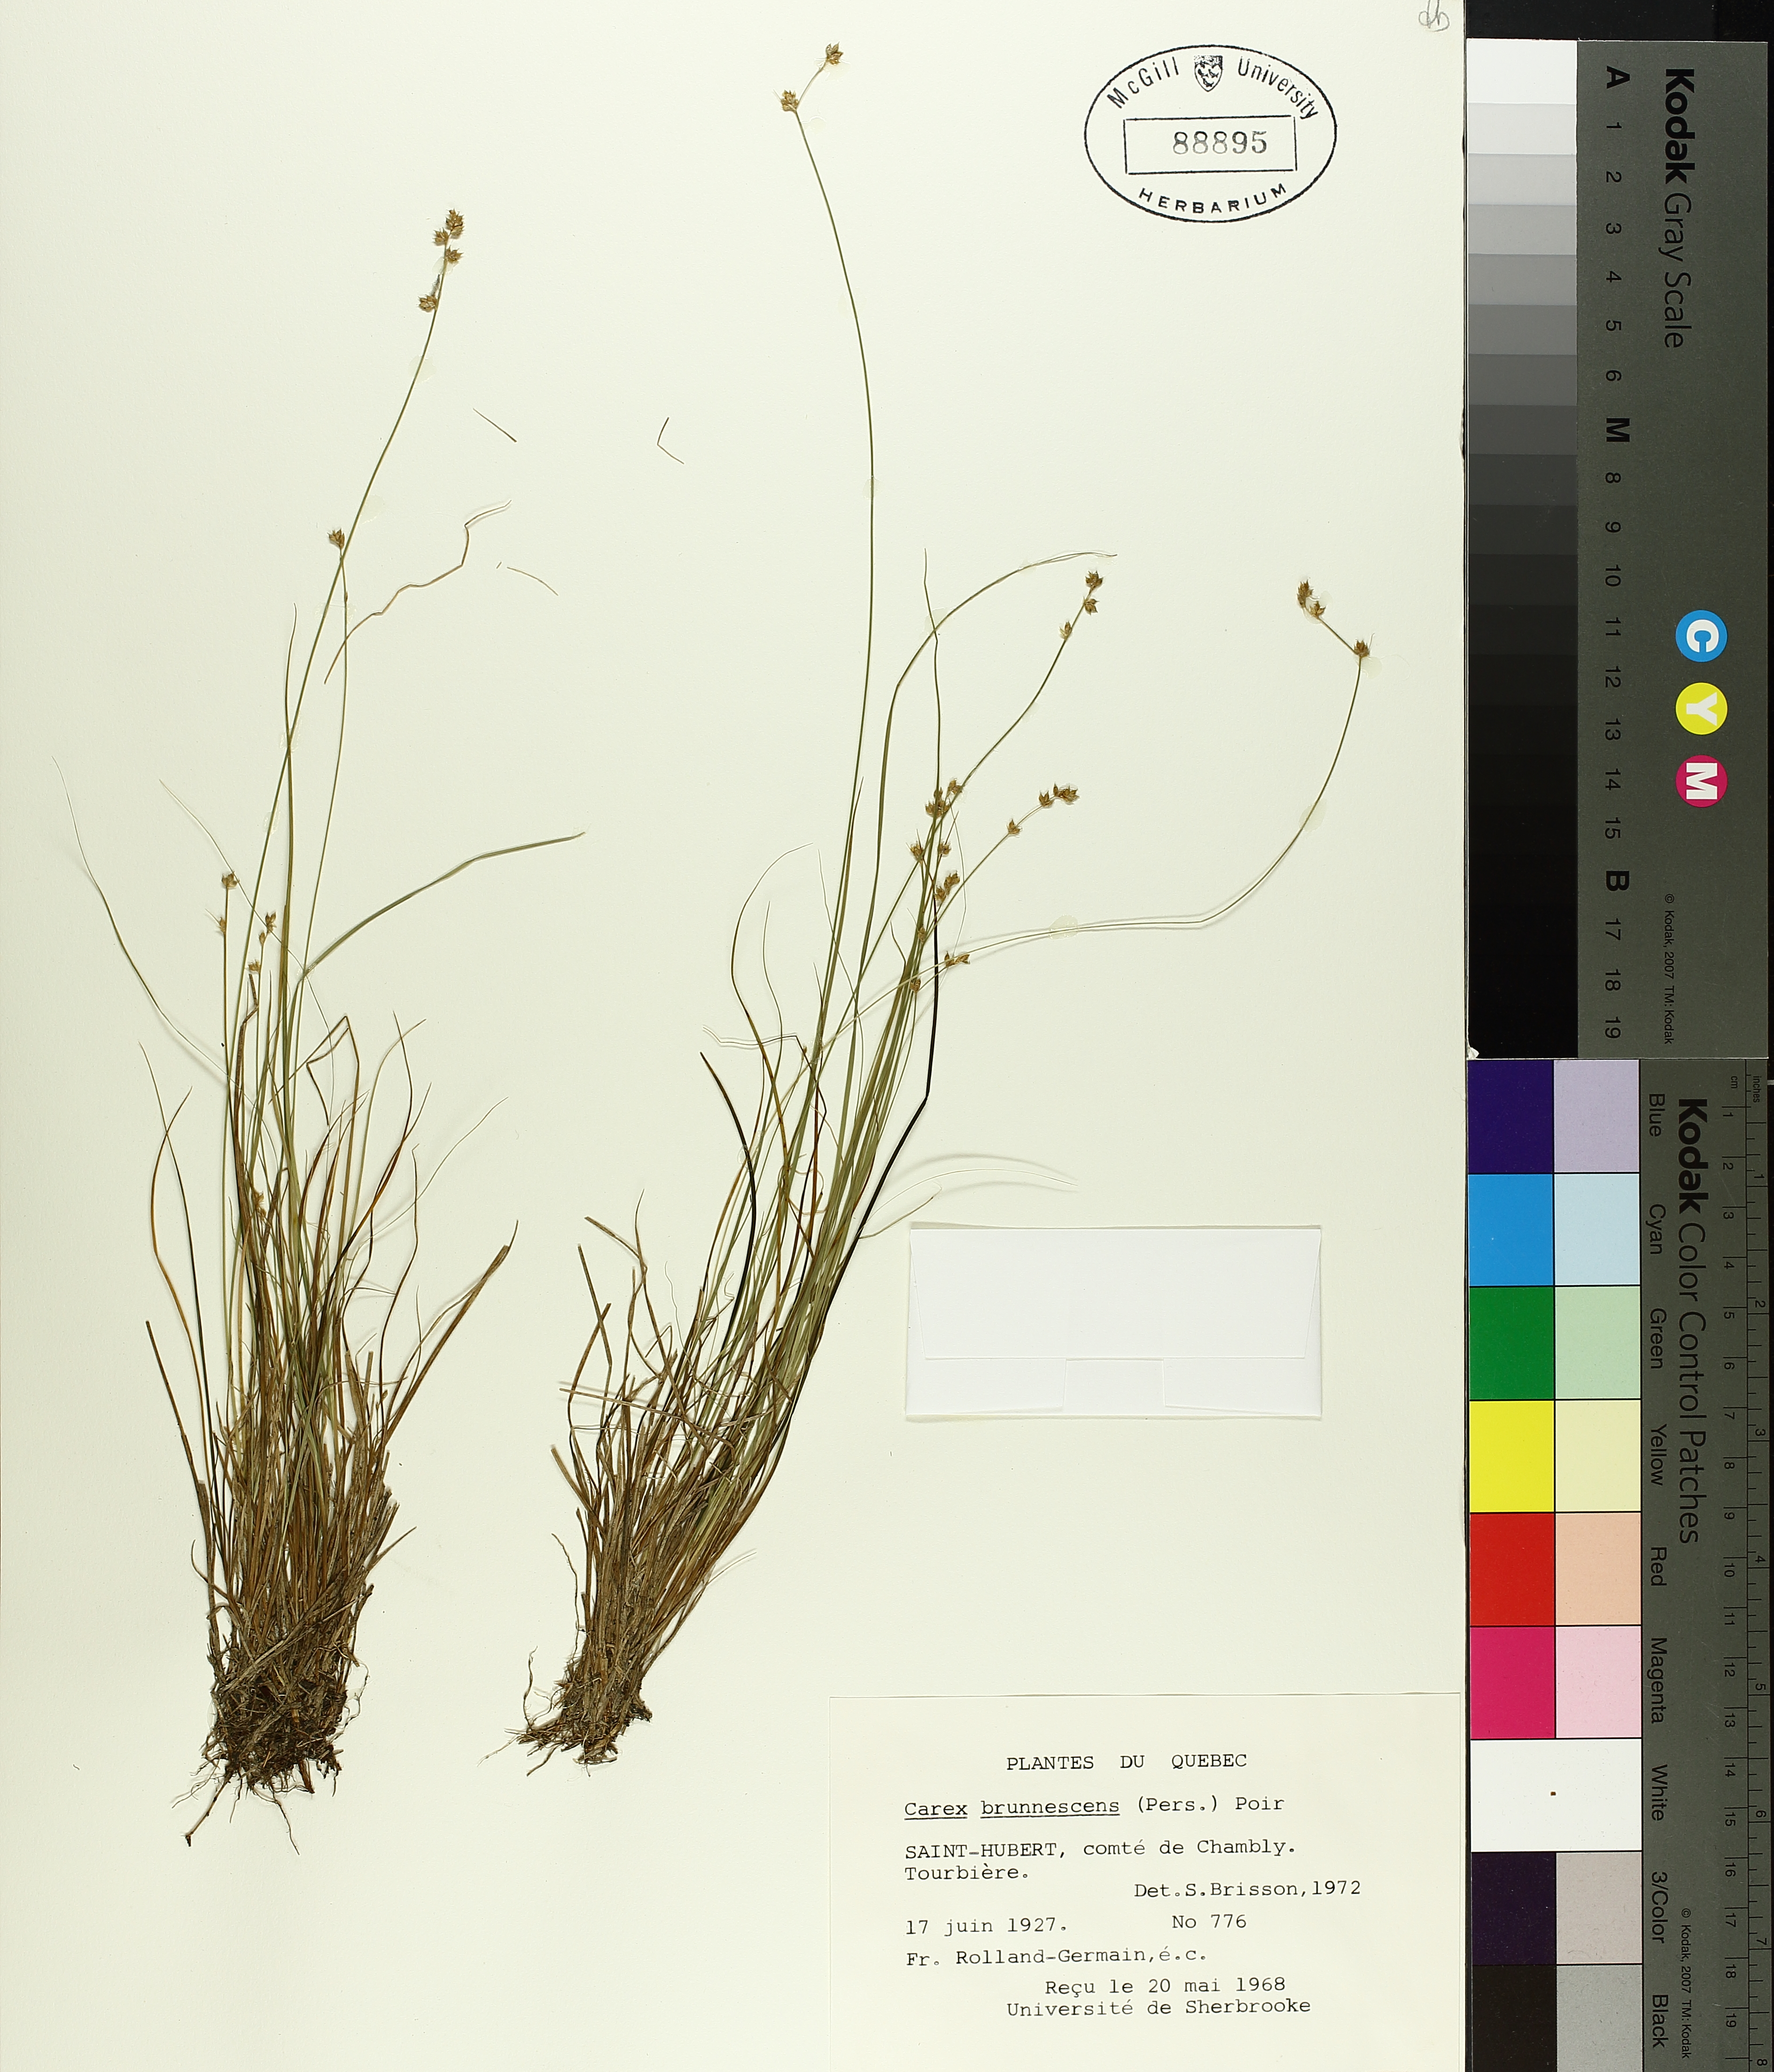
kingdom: Plantae
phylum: Tracheophyta
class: Liliopsida
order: Poales
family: Cyperaceae
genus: Carex
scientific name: Carex brunnescens
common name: Brown sedge
